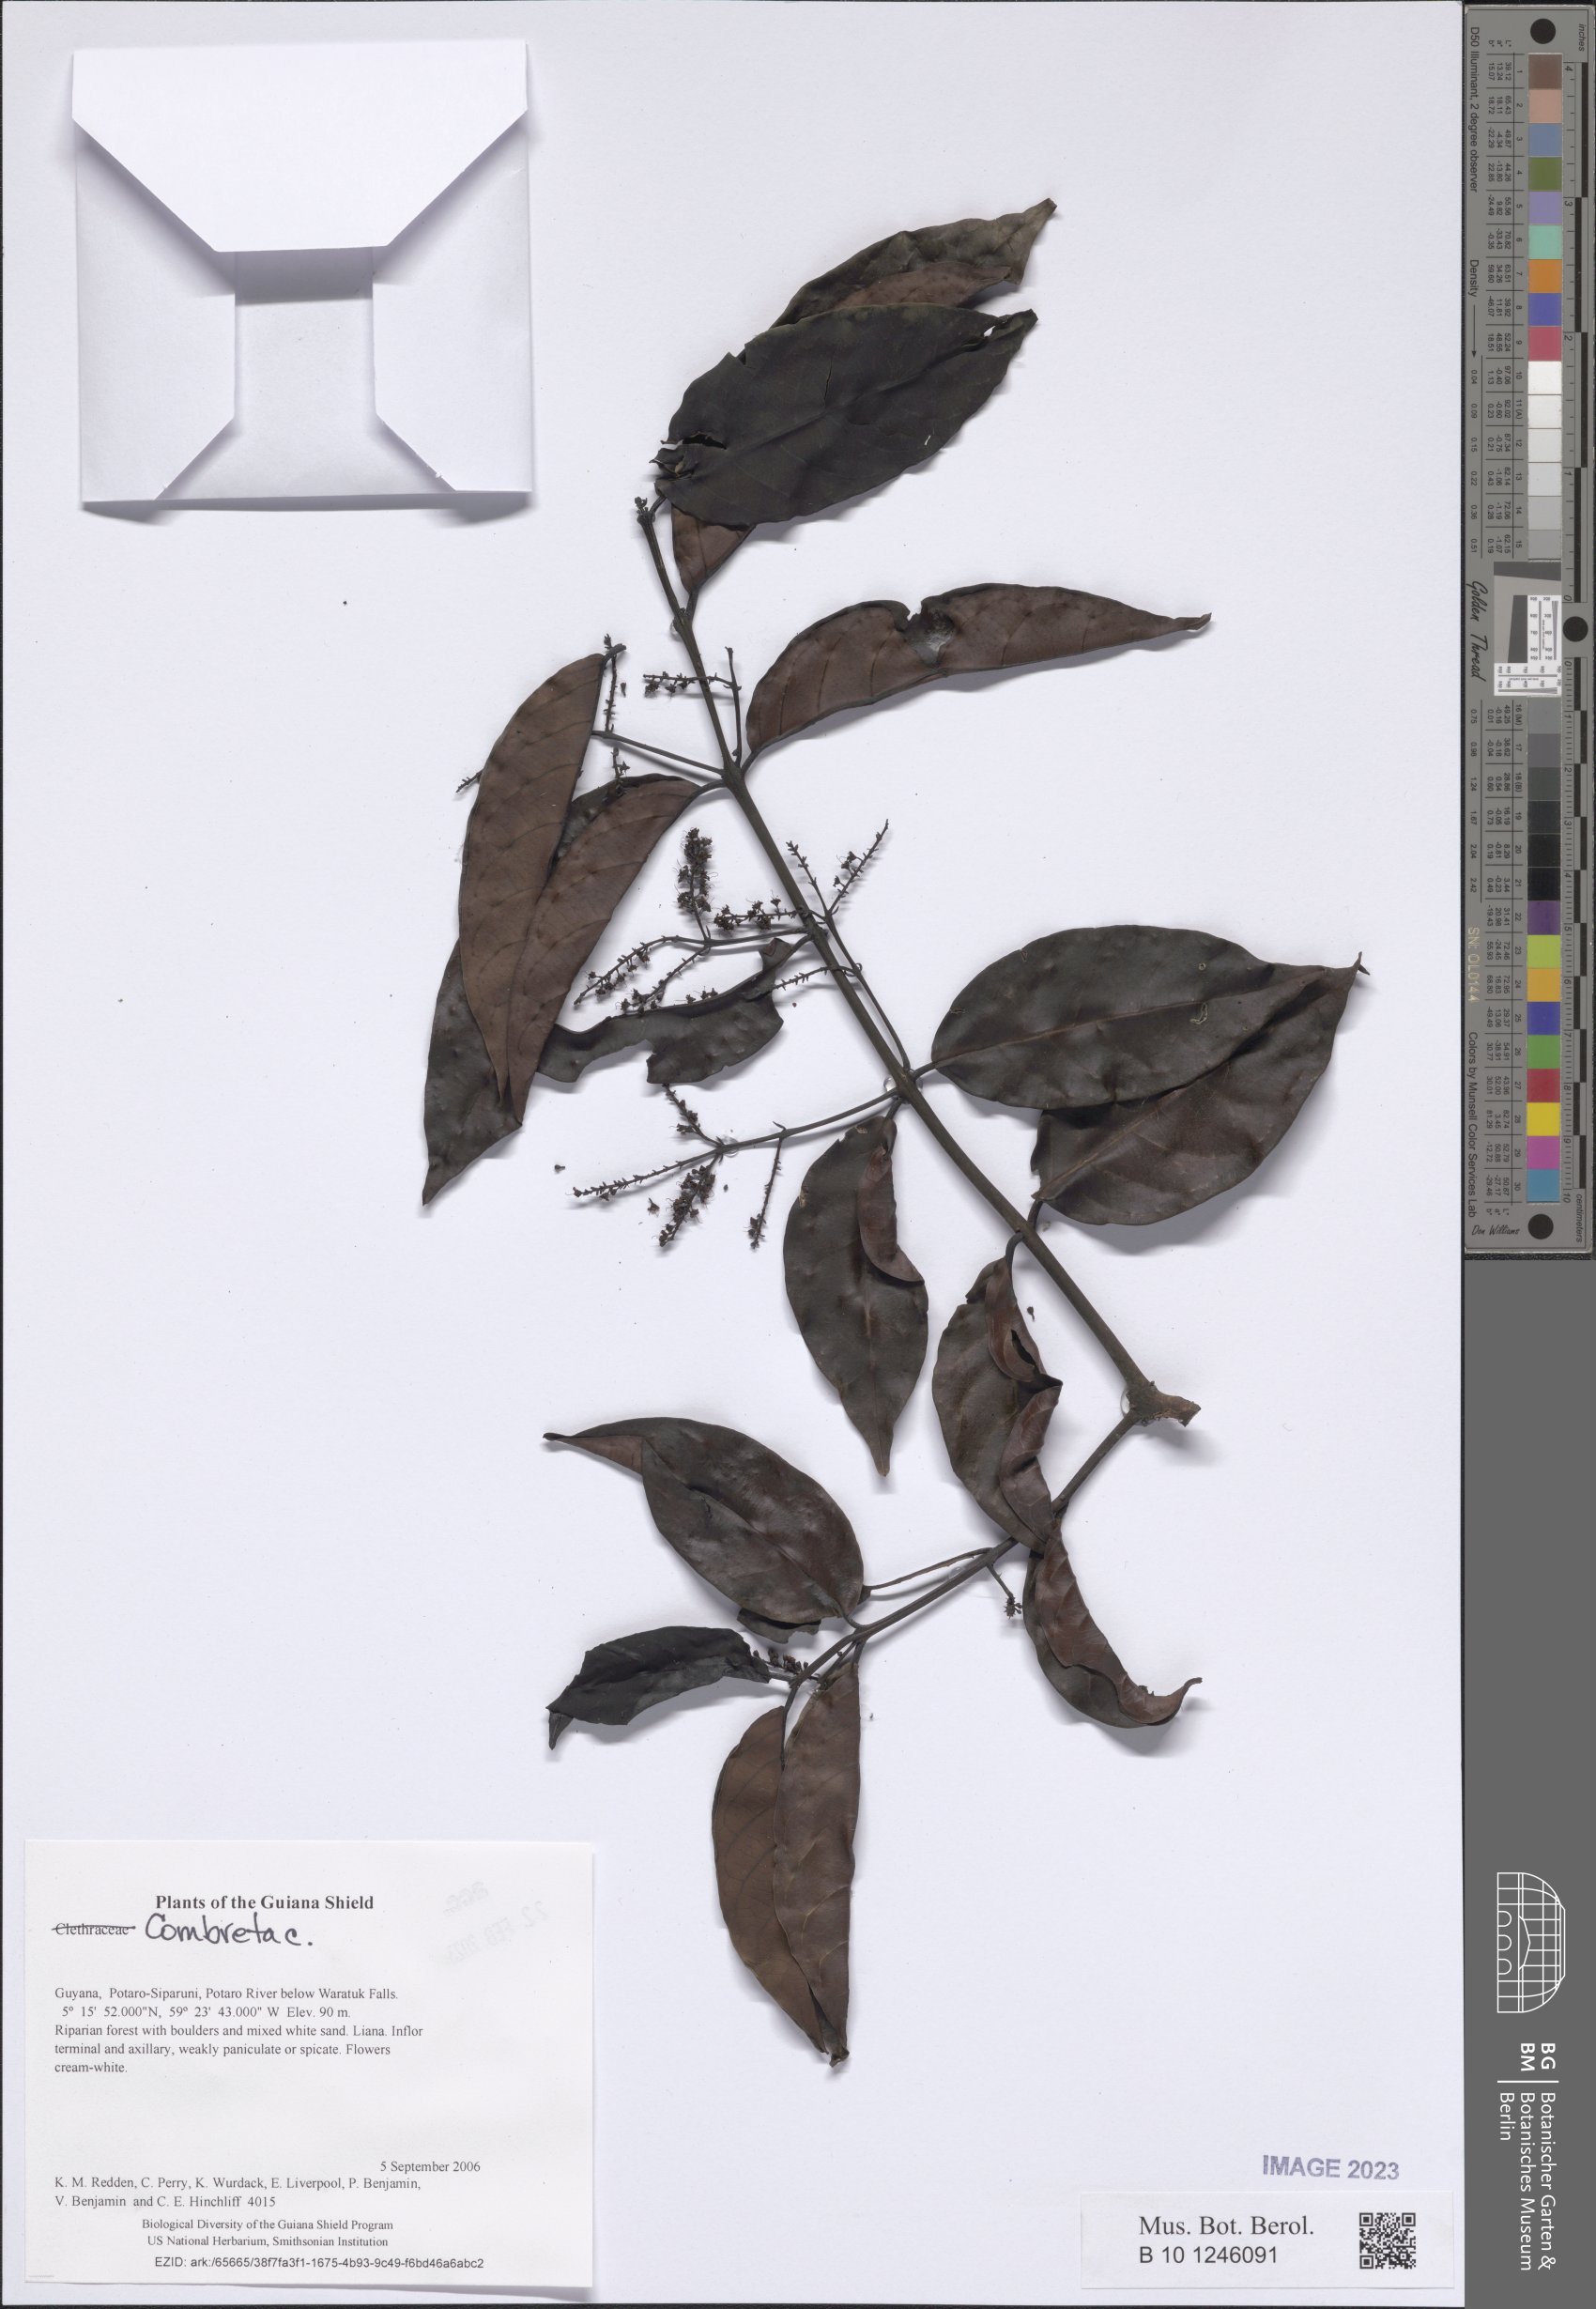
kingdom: Plantae
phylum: Tracheophyta
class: Magnoliopsida
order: Myrtales
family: Combretaceae
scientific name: Combretaceae
